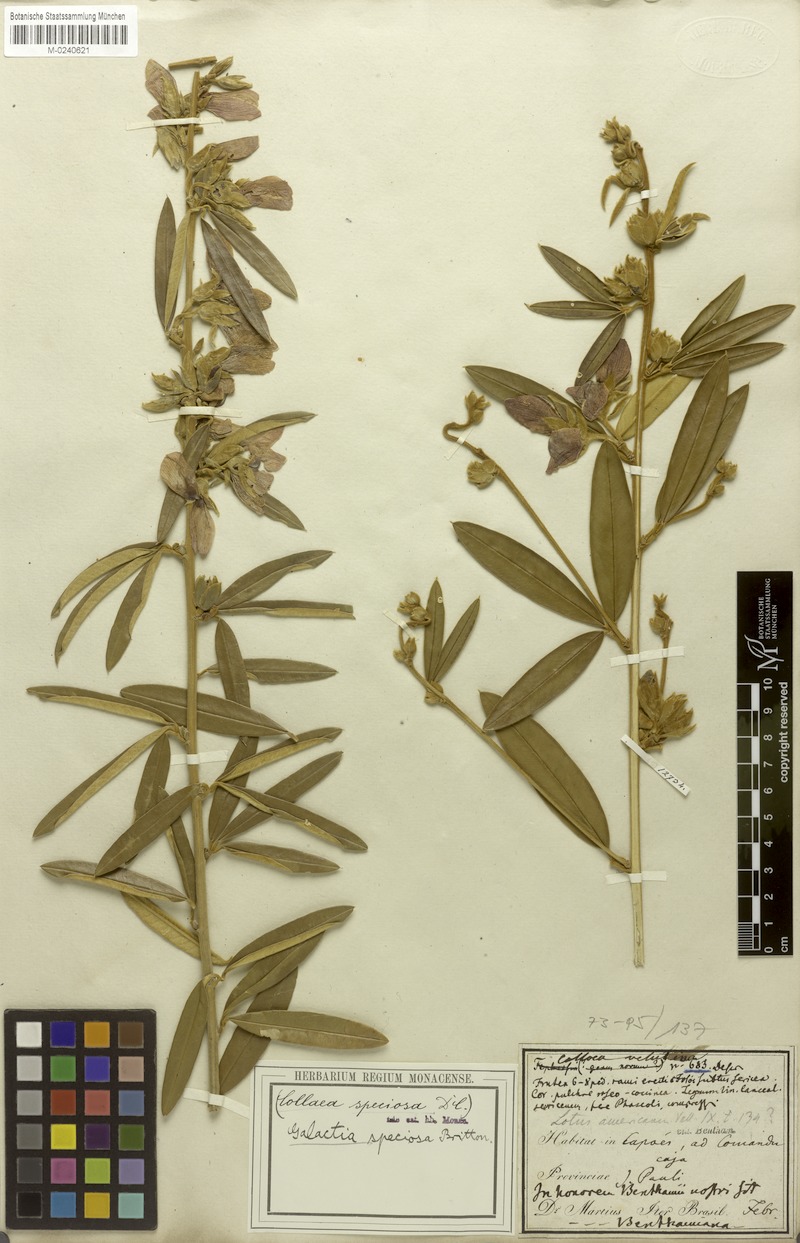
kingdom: Plantae
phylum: Tracheophyta
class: Magnoliopsida
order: Fabales
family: Fabaceae
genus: Collaea
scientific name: Collaea speciosa
